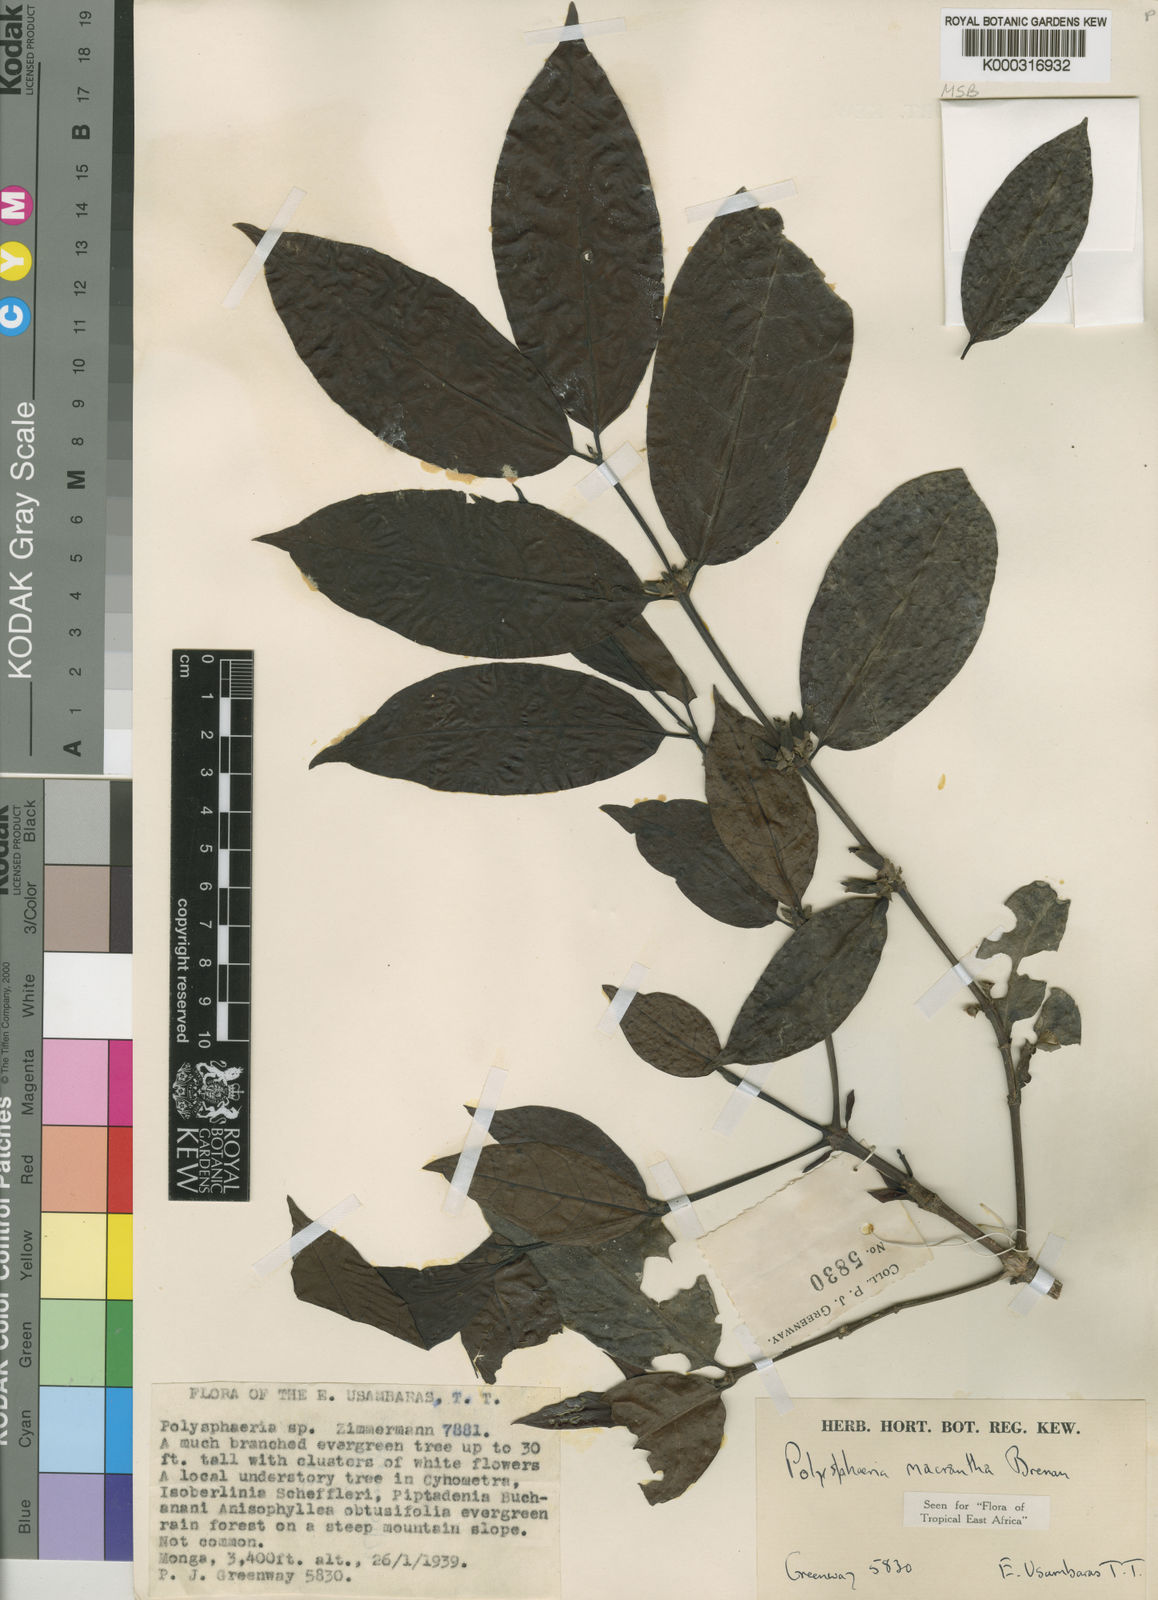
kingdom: Plantae
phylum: Tracheophyta
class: Magnoliopsida
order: Gentianales
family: Rubiaceae
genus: Polysphaeria
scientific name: Polysphaeria macrantha
